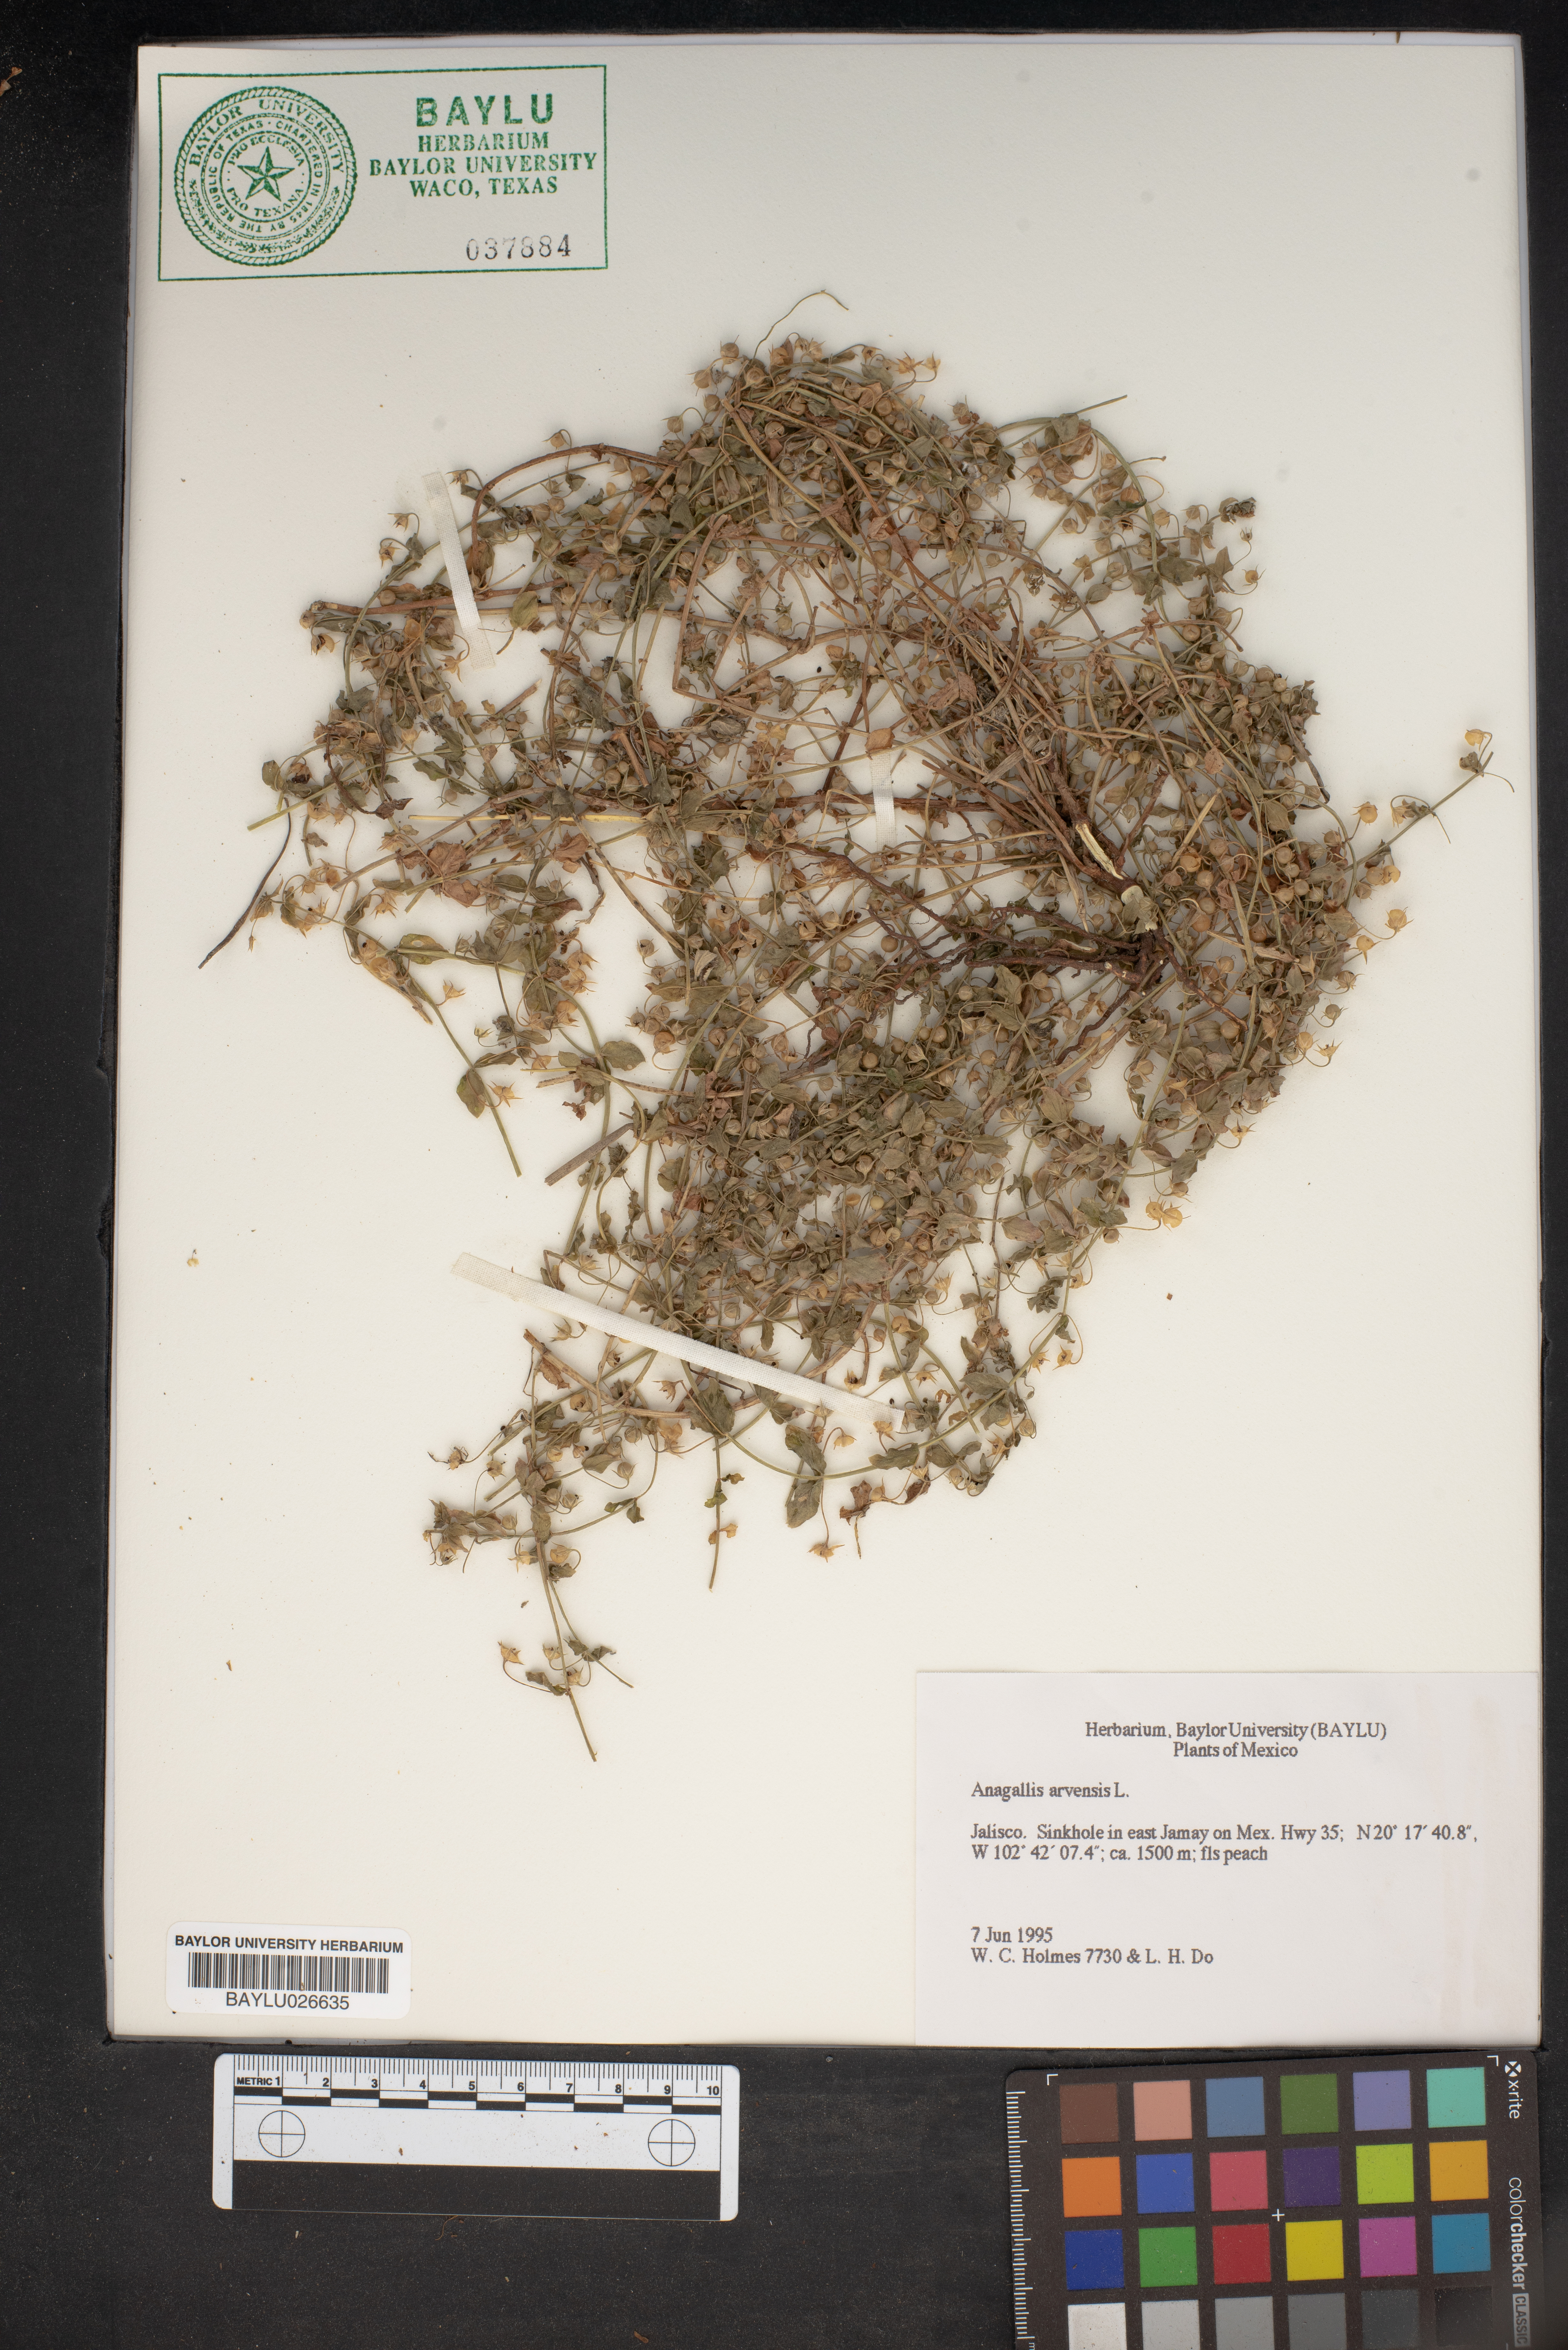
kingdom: Plantae
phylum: Tracheophyta
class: Magnoliopsida
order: Ericales
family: Primulaceae
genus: Lysimachia
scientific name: Lysimachia arvensis
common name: Scarlet pimpernel
